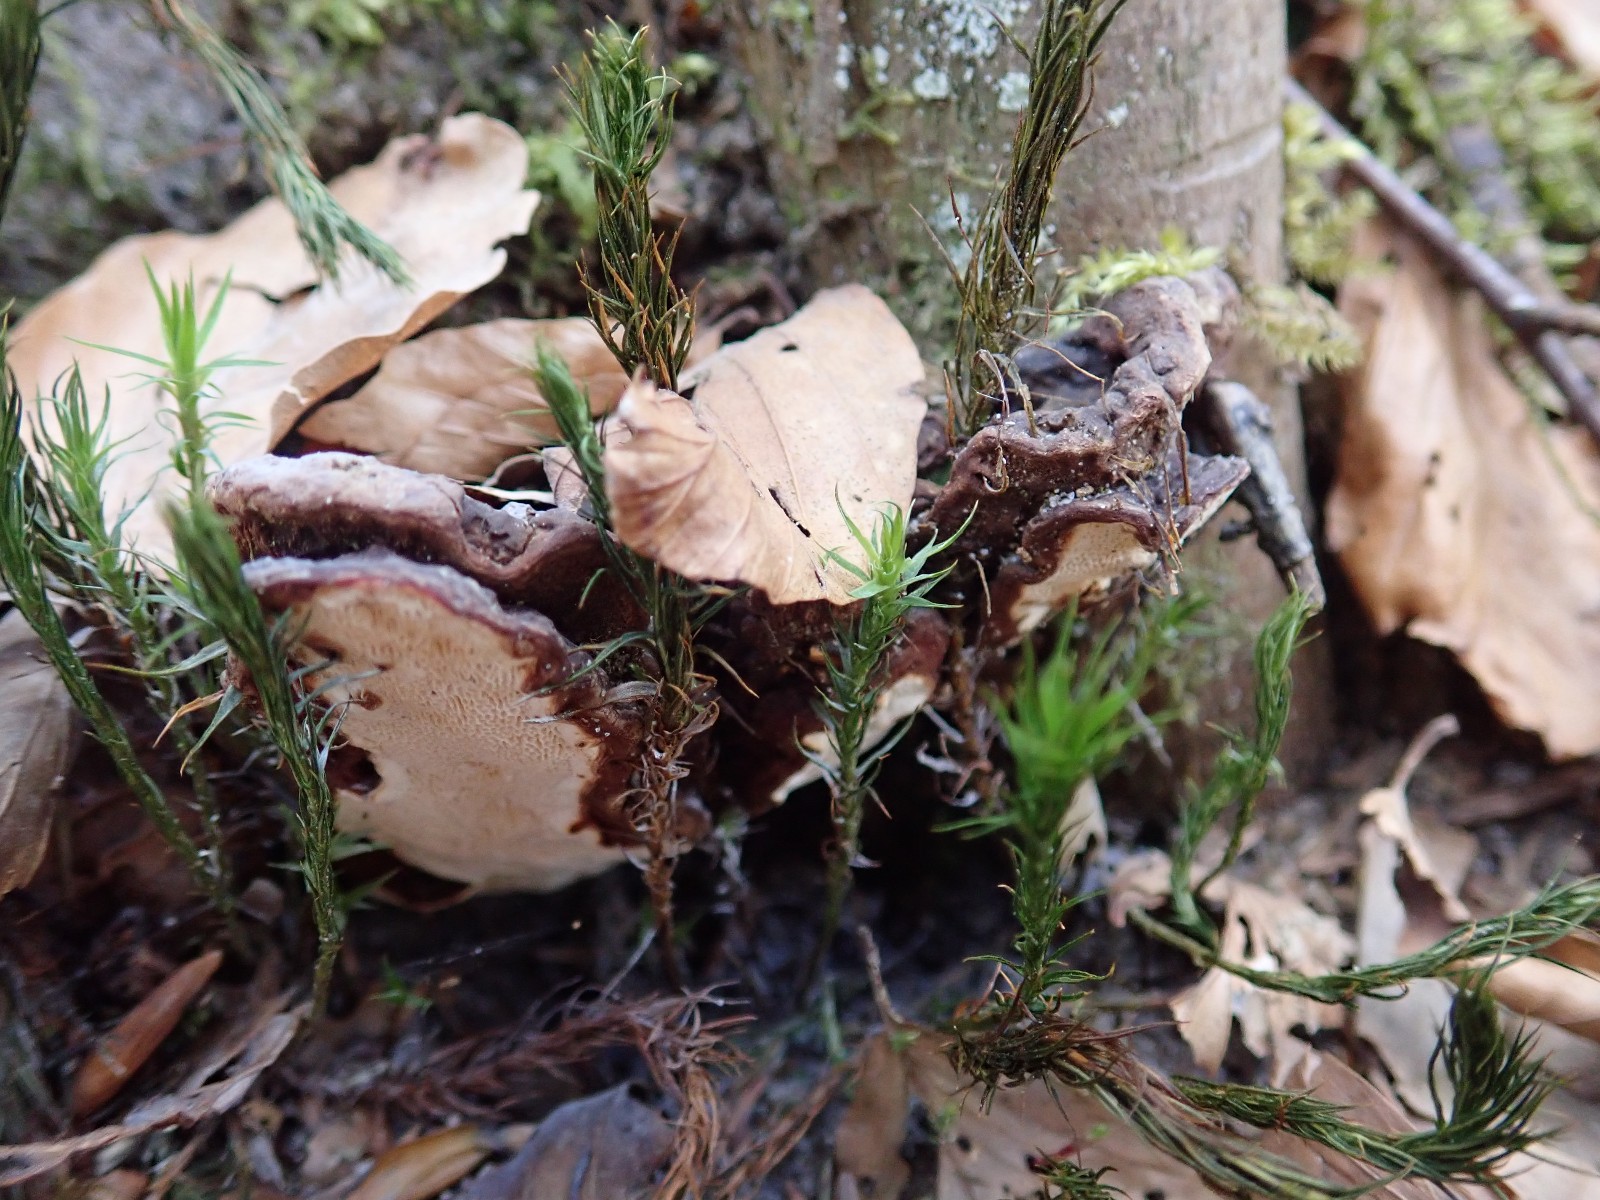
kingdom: Fungi
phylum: Basidiomycota
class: Agaricomycetes
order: Russulales
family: Bondarzewiaceae
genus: Heterobasidion
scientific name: Heterobasidion annosum
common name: almindelig rodfordærver
